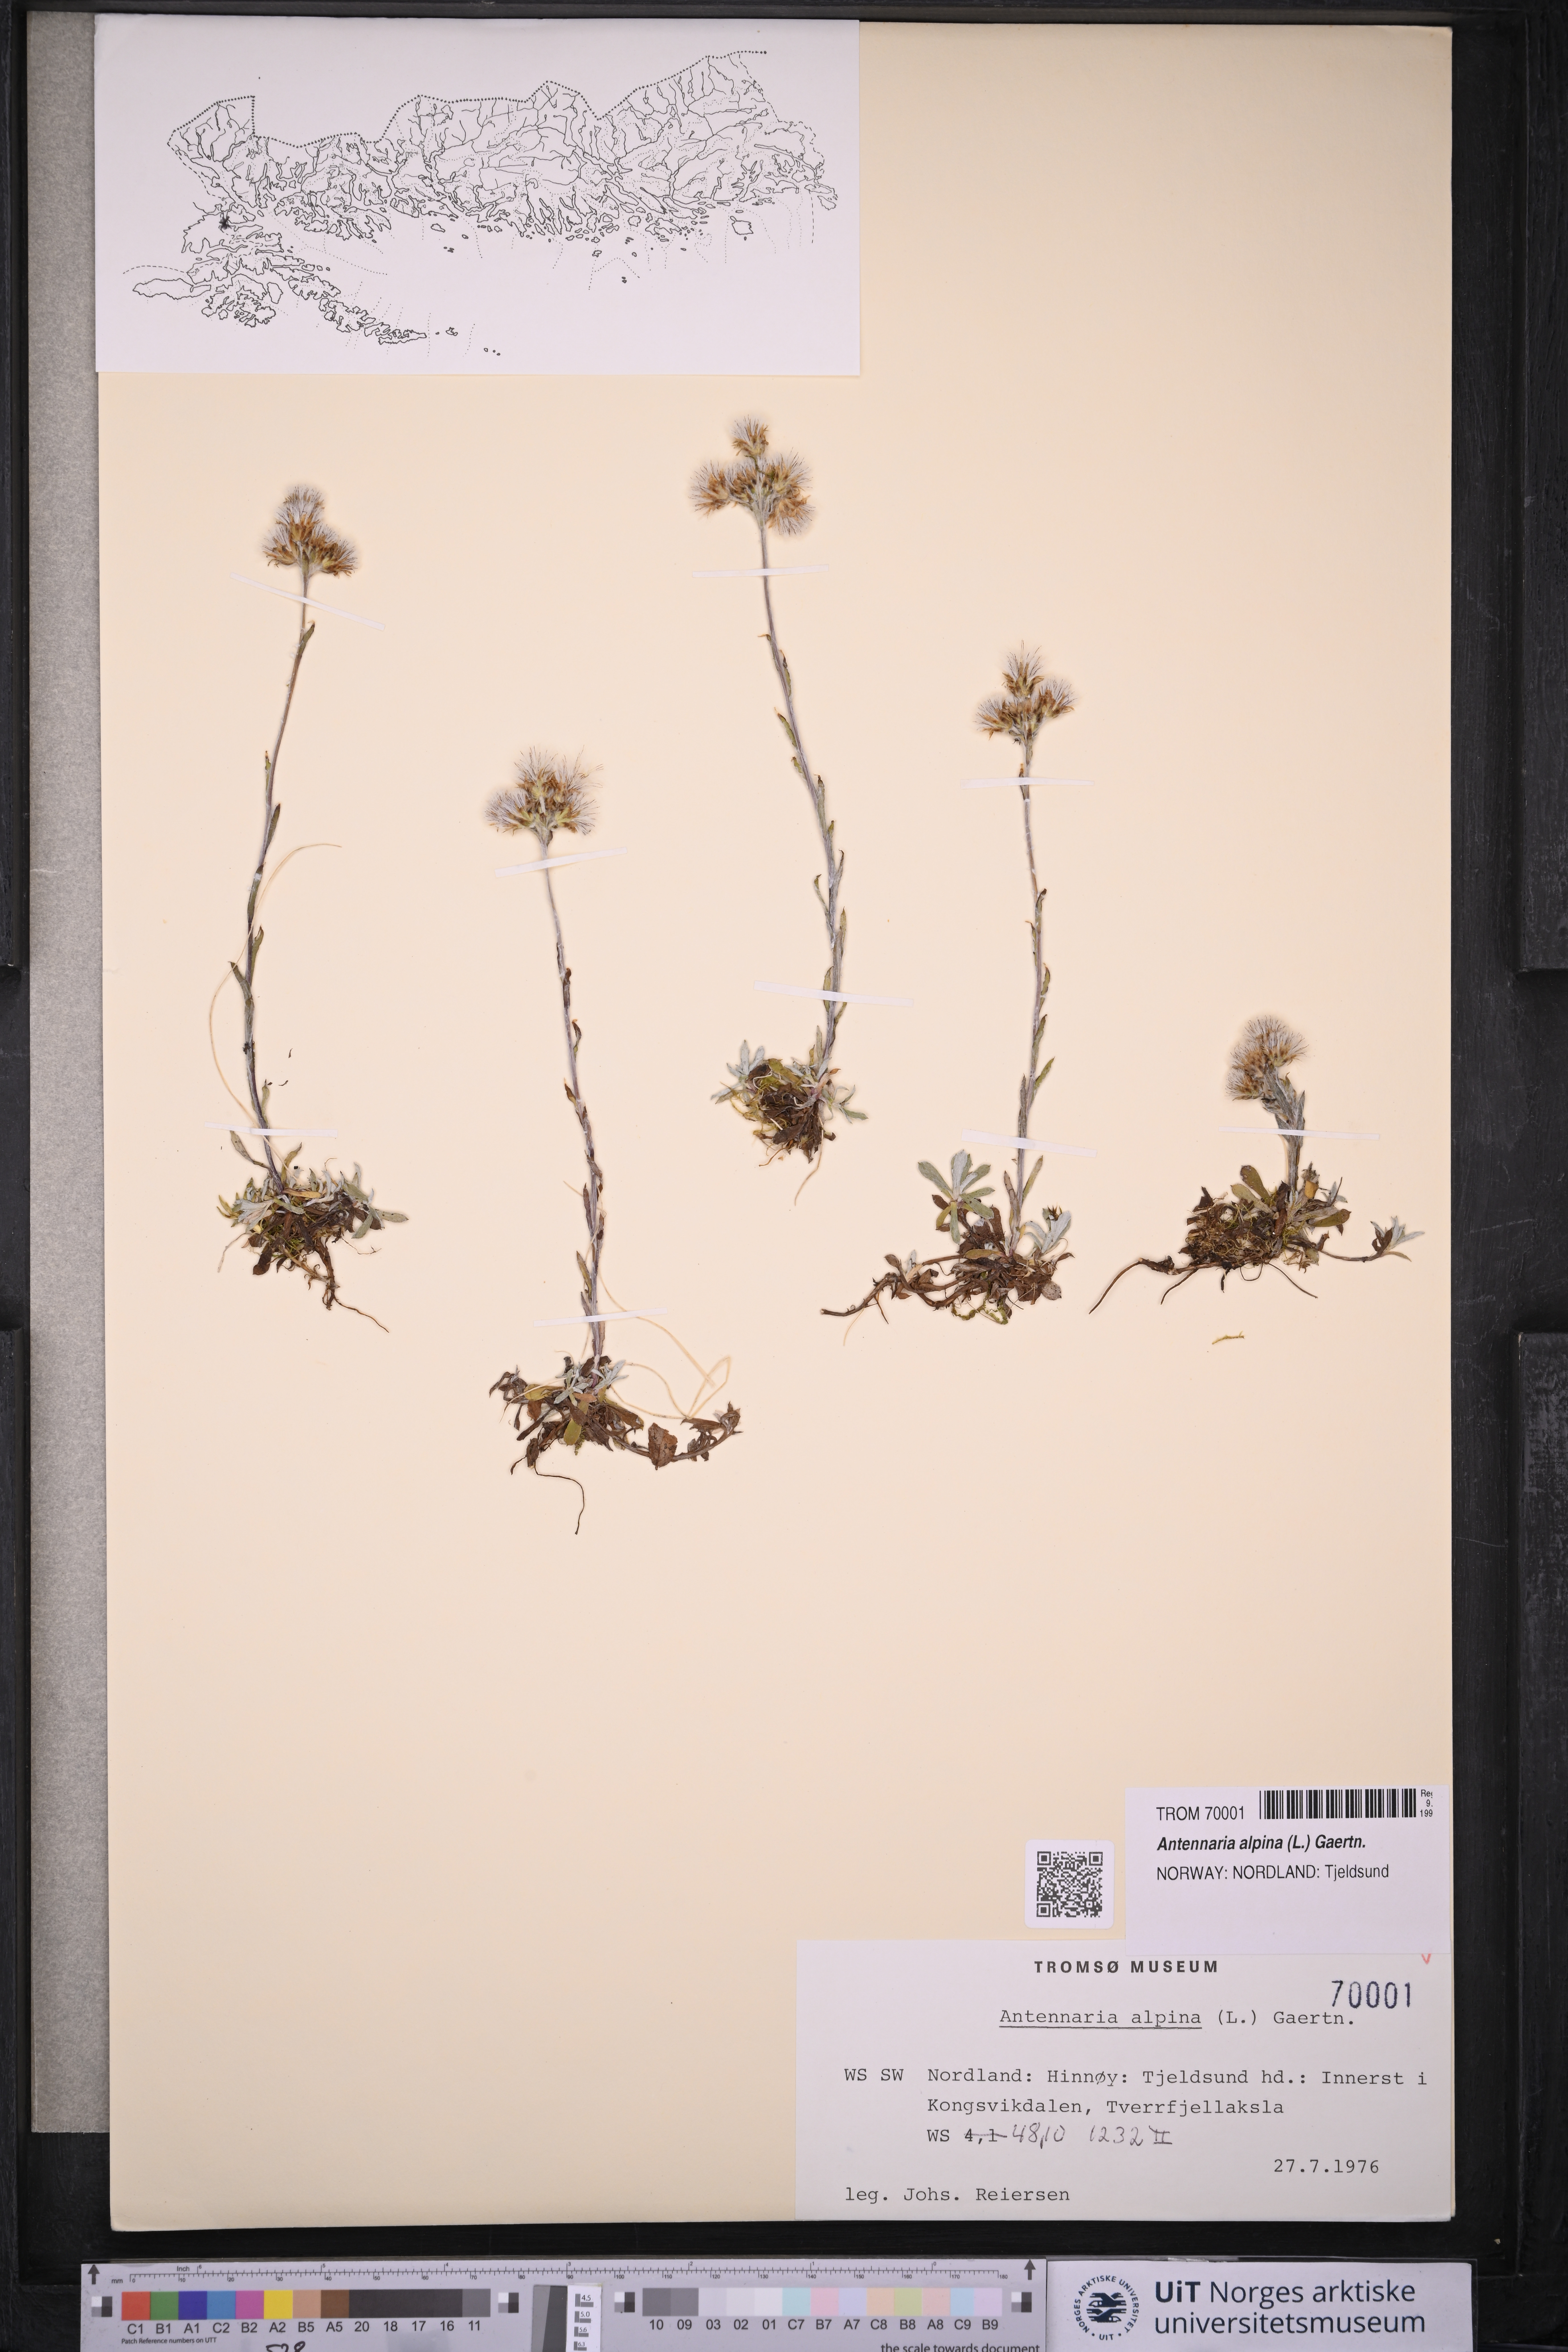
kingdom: Plantae
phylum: Tracheophyta
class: Magnoliopsida
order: Asterales
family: Asteraceae
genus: Antennaria
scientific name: Antennaria alpina
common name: Alpine pussytoes
